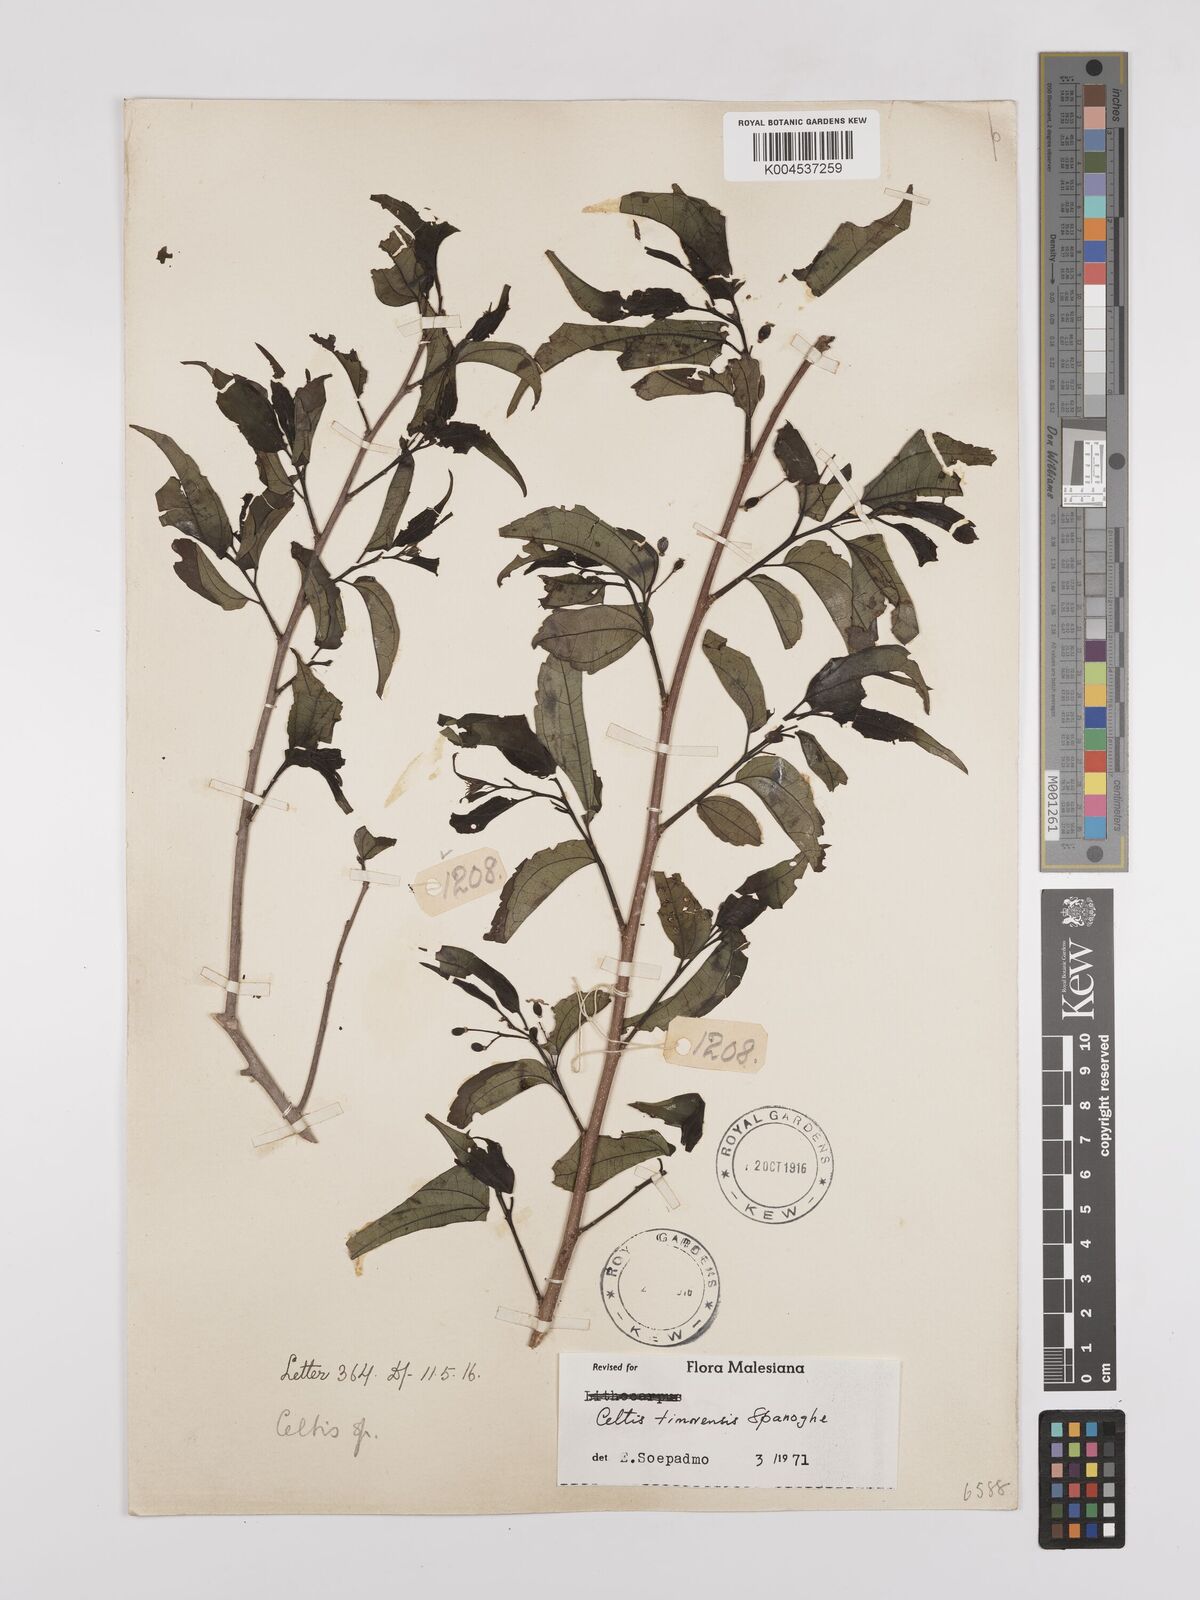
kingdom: Plantae
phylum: Tracheophyta
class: Magnoliopsida
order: Rosales
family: Cannabaceae
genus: Celtis
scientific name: Celtis
